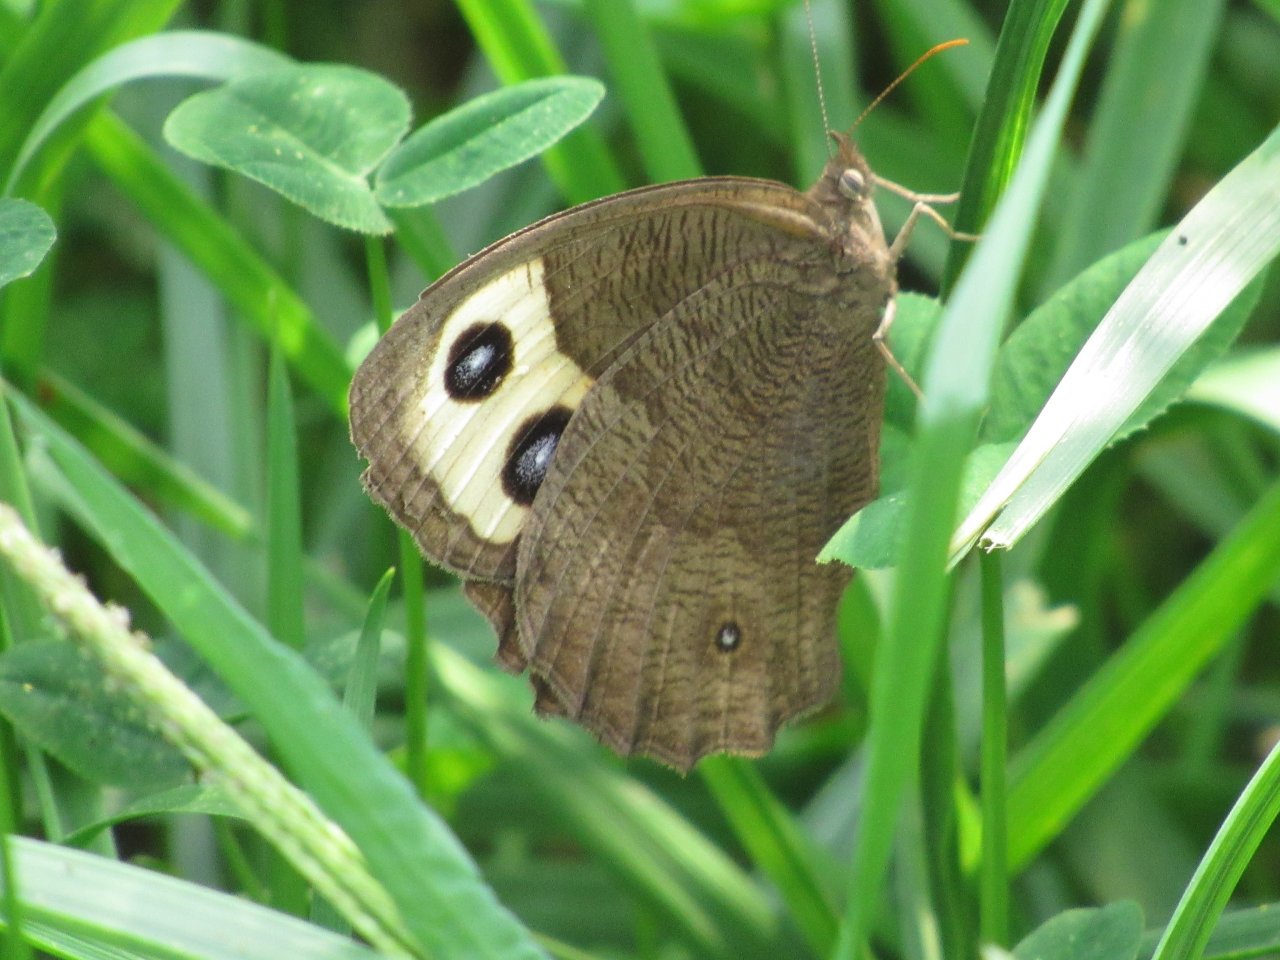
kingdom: Animalia
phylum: Arthropoda
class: Insecta
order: Lepidoptera
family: Nymphalidae
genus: Cercyonis
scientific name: Cercyonis pegala
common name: Common Wood-Nymph
